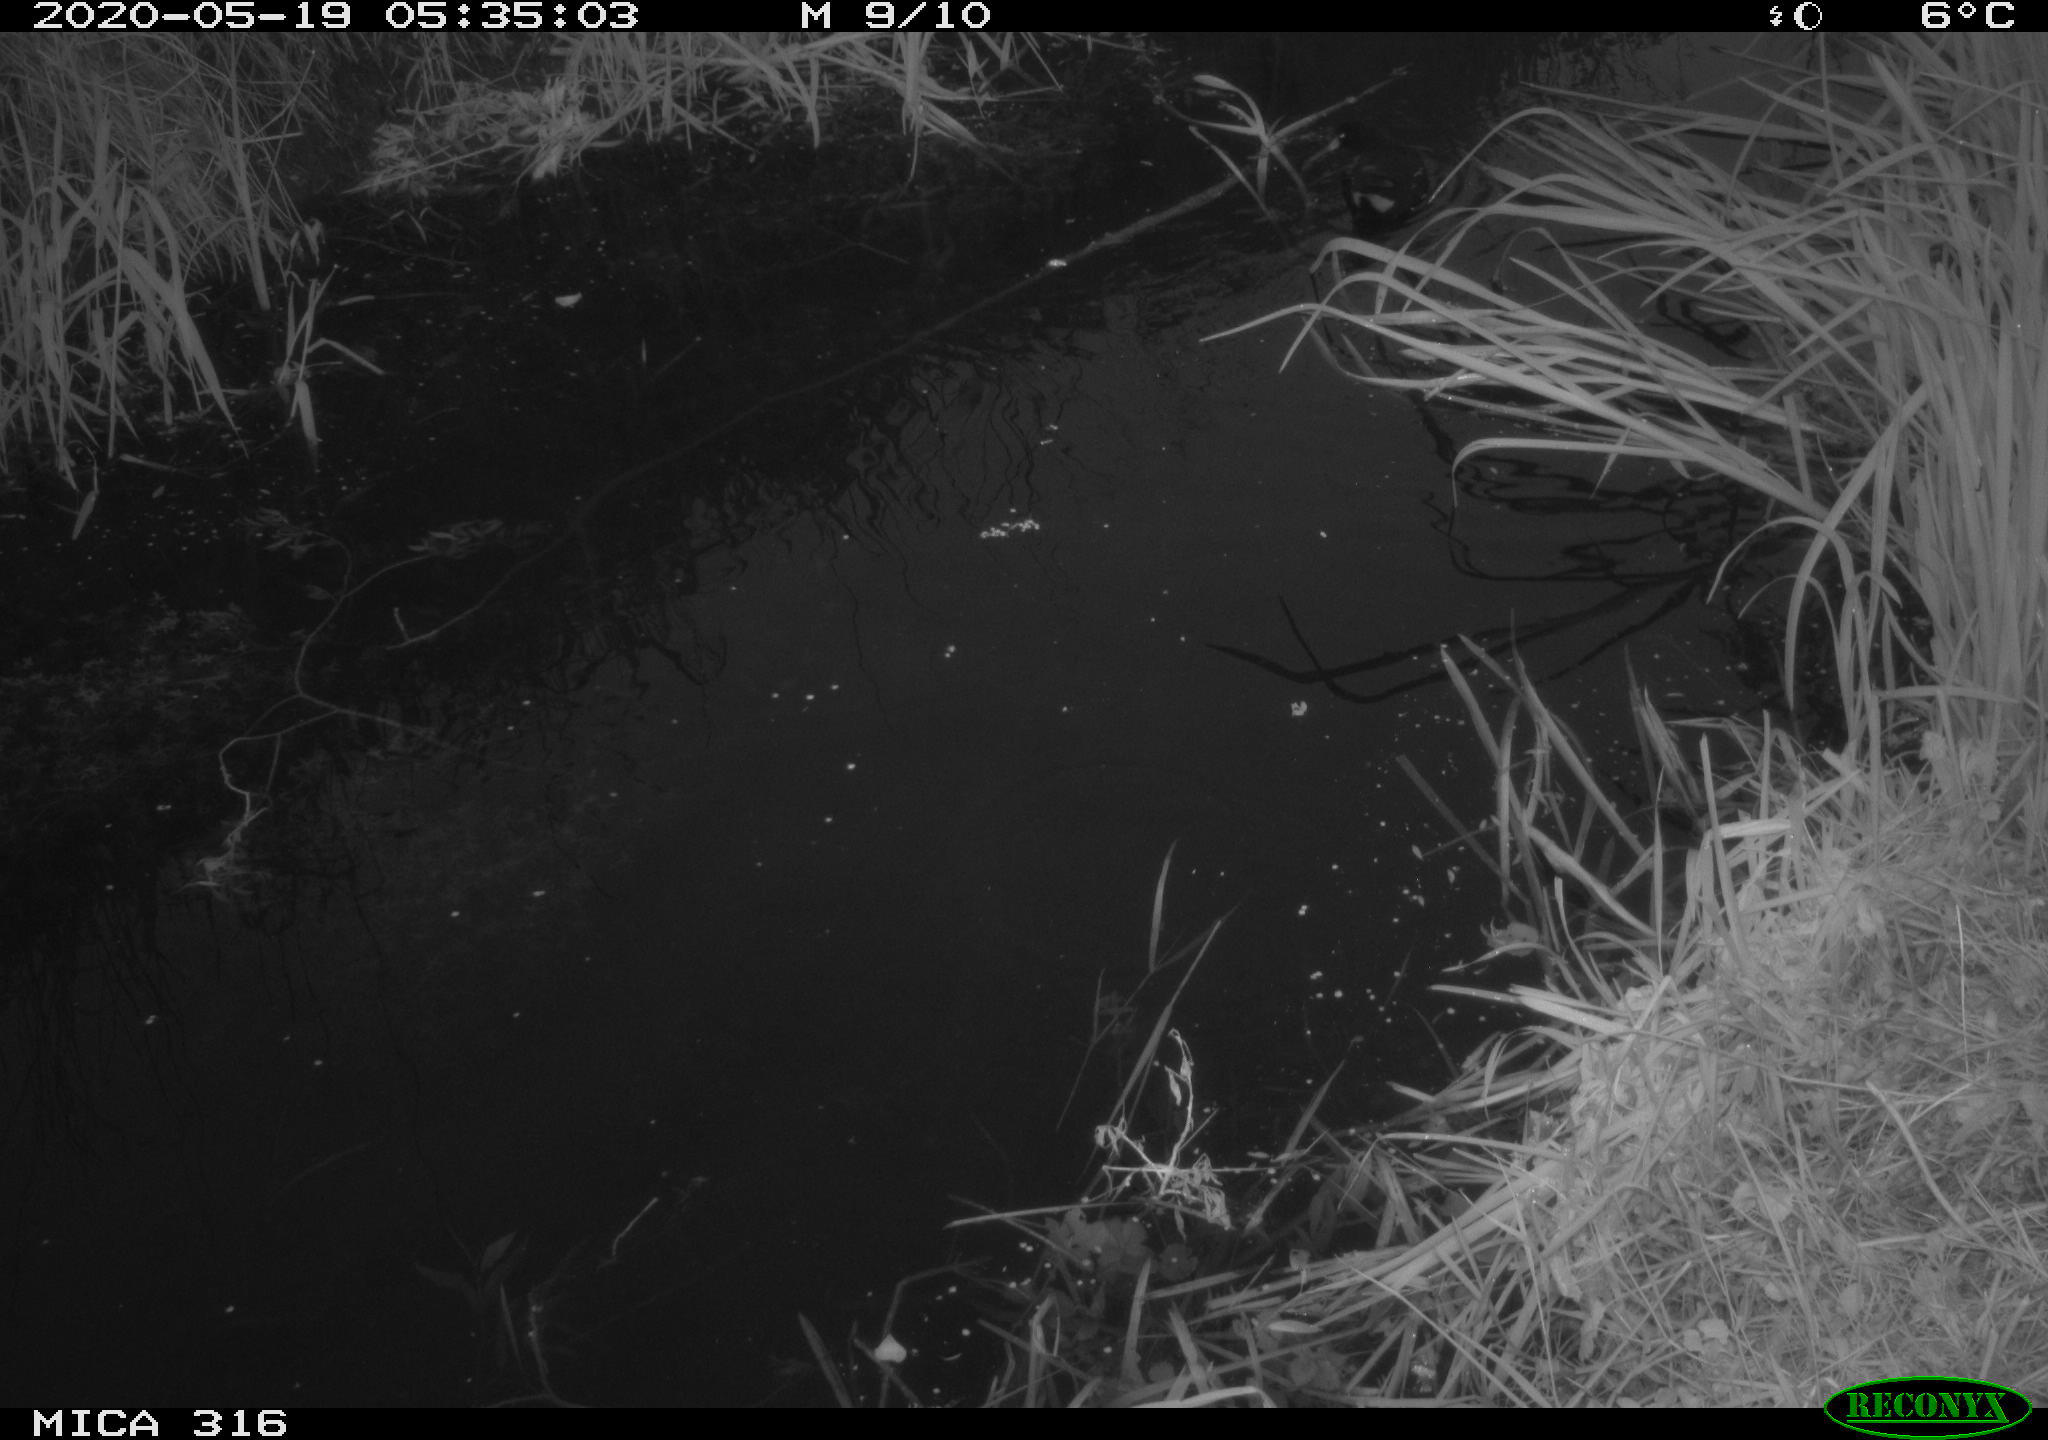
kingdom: Animalia
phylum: Chordata
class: Aves
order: Gruiformes
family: Rallidae
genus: Gallinula
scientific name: Gallinula chloropus
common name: Common moorhen
